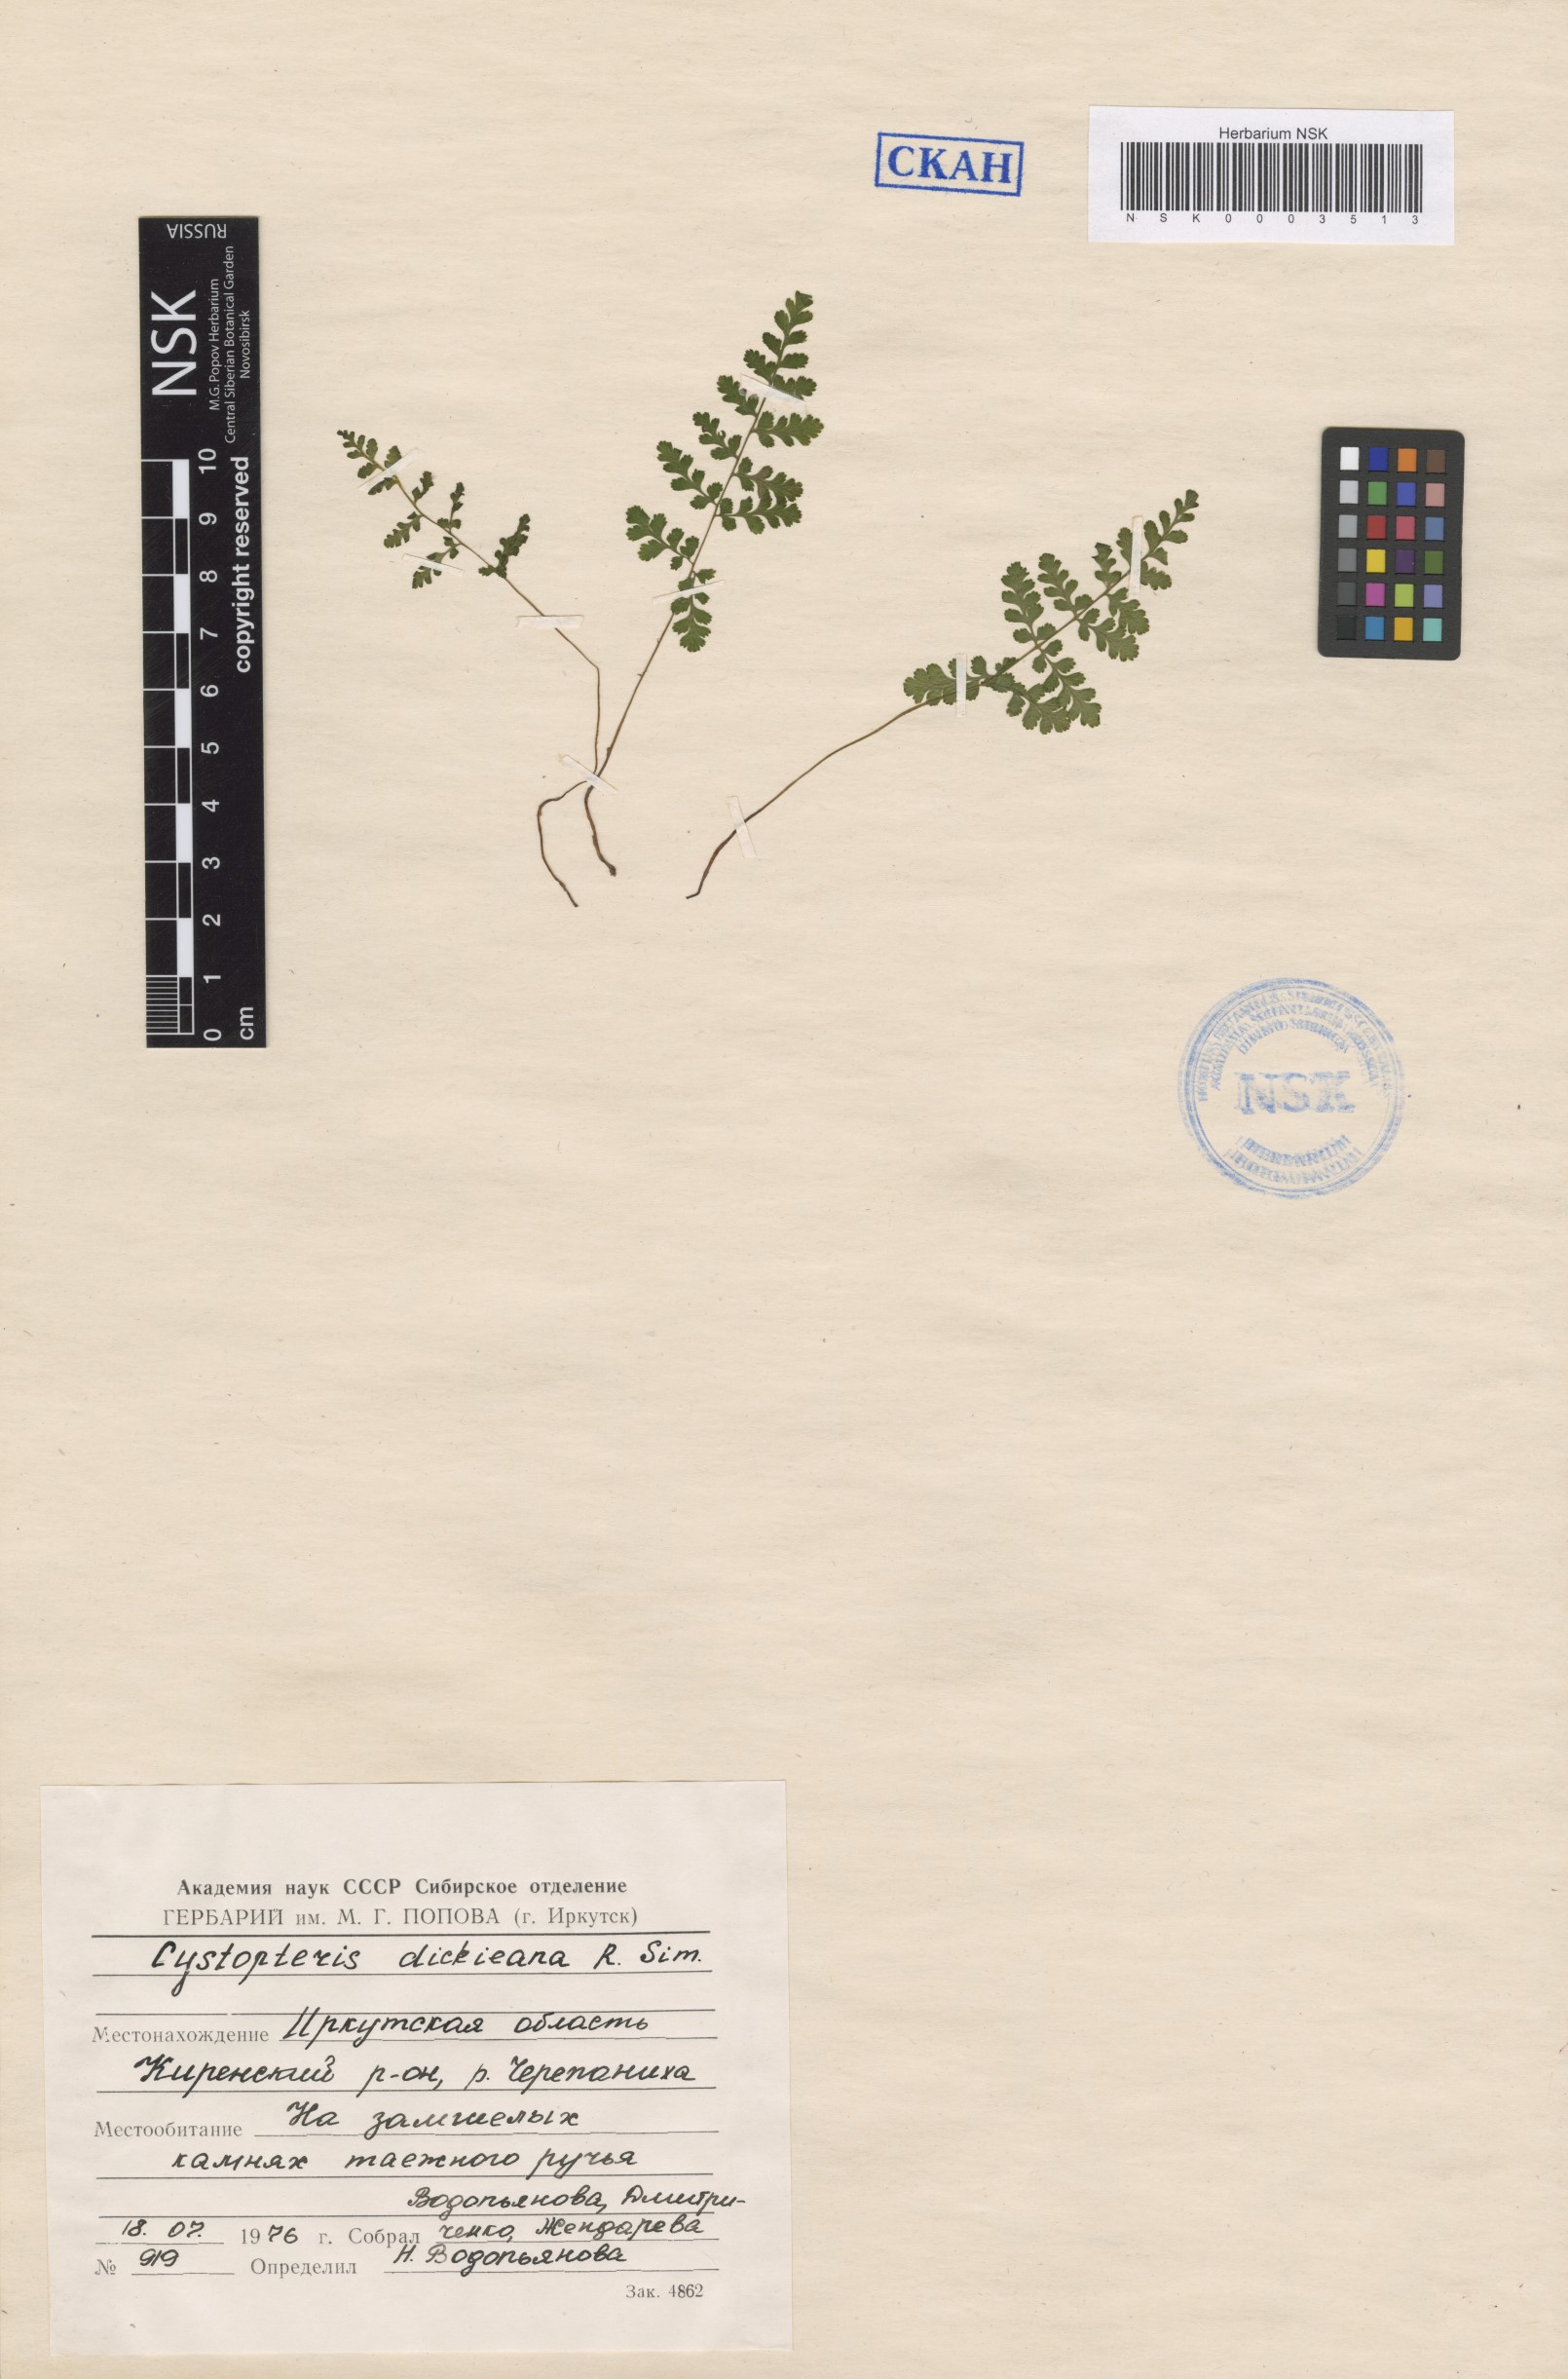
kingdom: Plantae
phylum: Tracheophyta
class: Polypodiopsida
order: Polypodiales
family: Cystopteridaceae
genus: Cystopteris
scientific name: Cystopteris dickieana
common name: Dickie's bladder-fern
